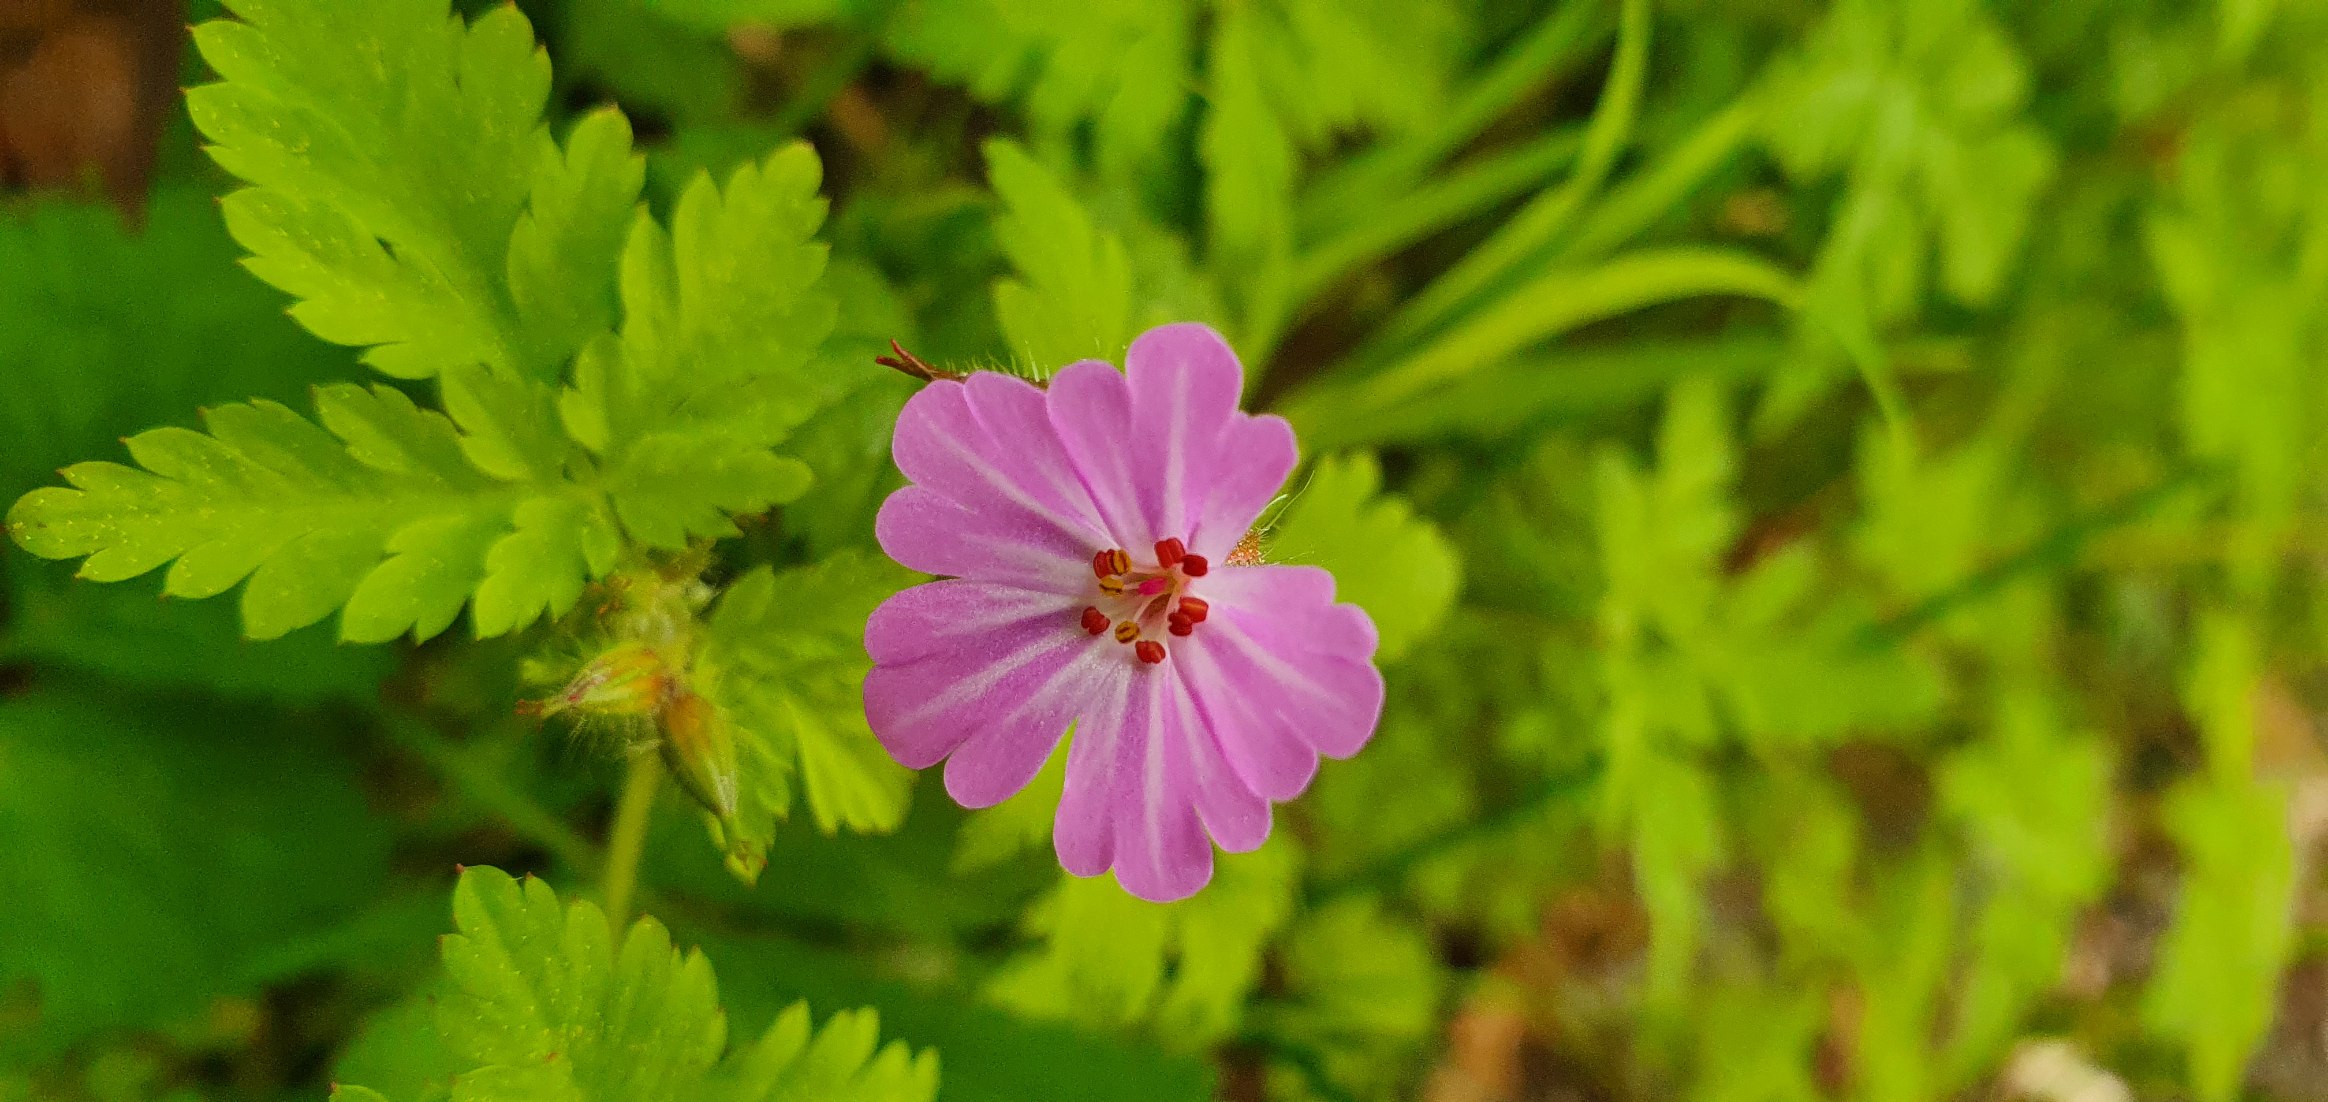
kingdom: Plantae
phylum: Tracheophyta
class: Magnoliopsida
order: Geraniales
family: Geraniaceae
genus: Geranium
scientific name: Geranium robertianum
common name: Stinkende storkenæb
